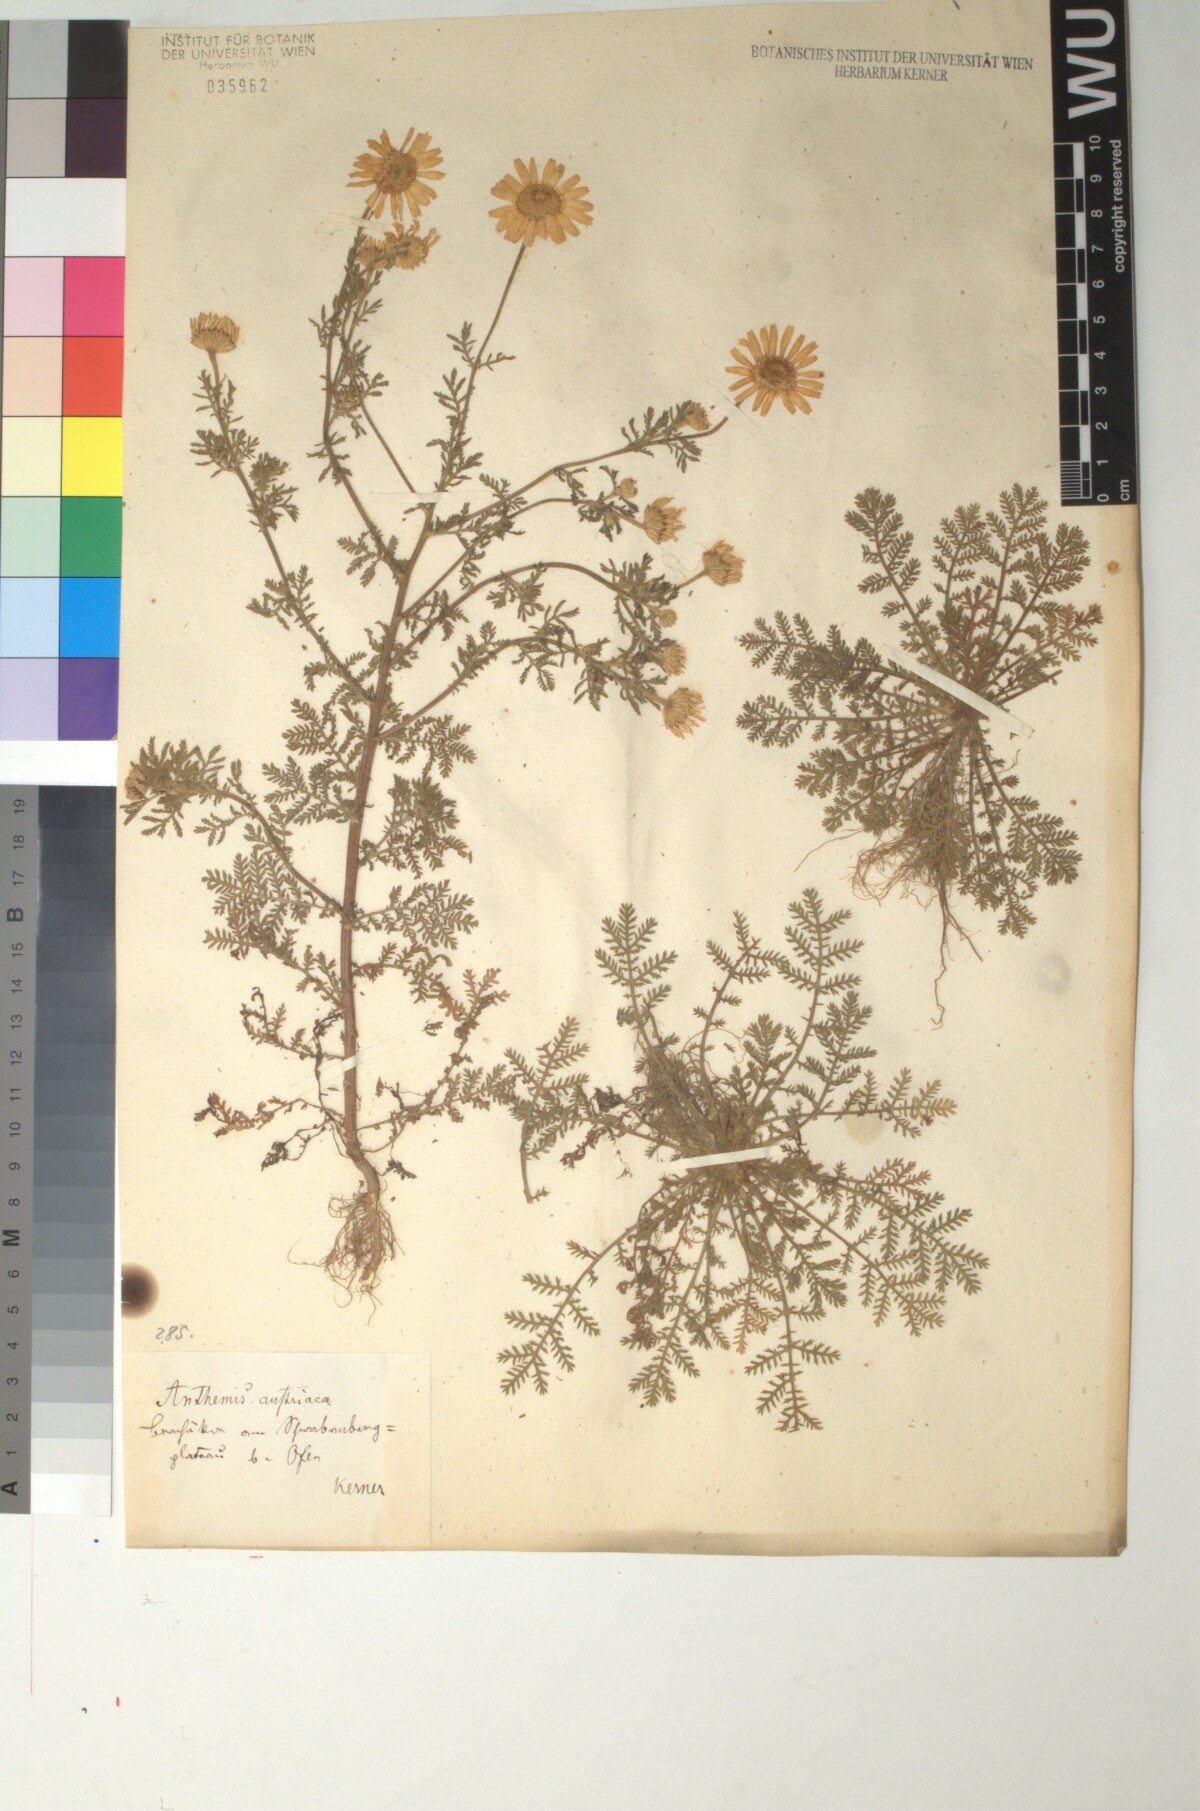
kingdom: Plantae
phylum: Tracheophyta
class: Magnoliopsida
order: Asterales
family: Asteraceae
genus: Cota
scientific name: Cota austriaca
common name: Austrian chamomile
